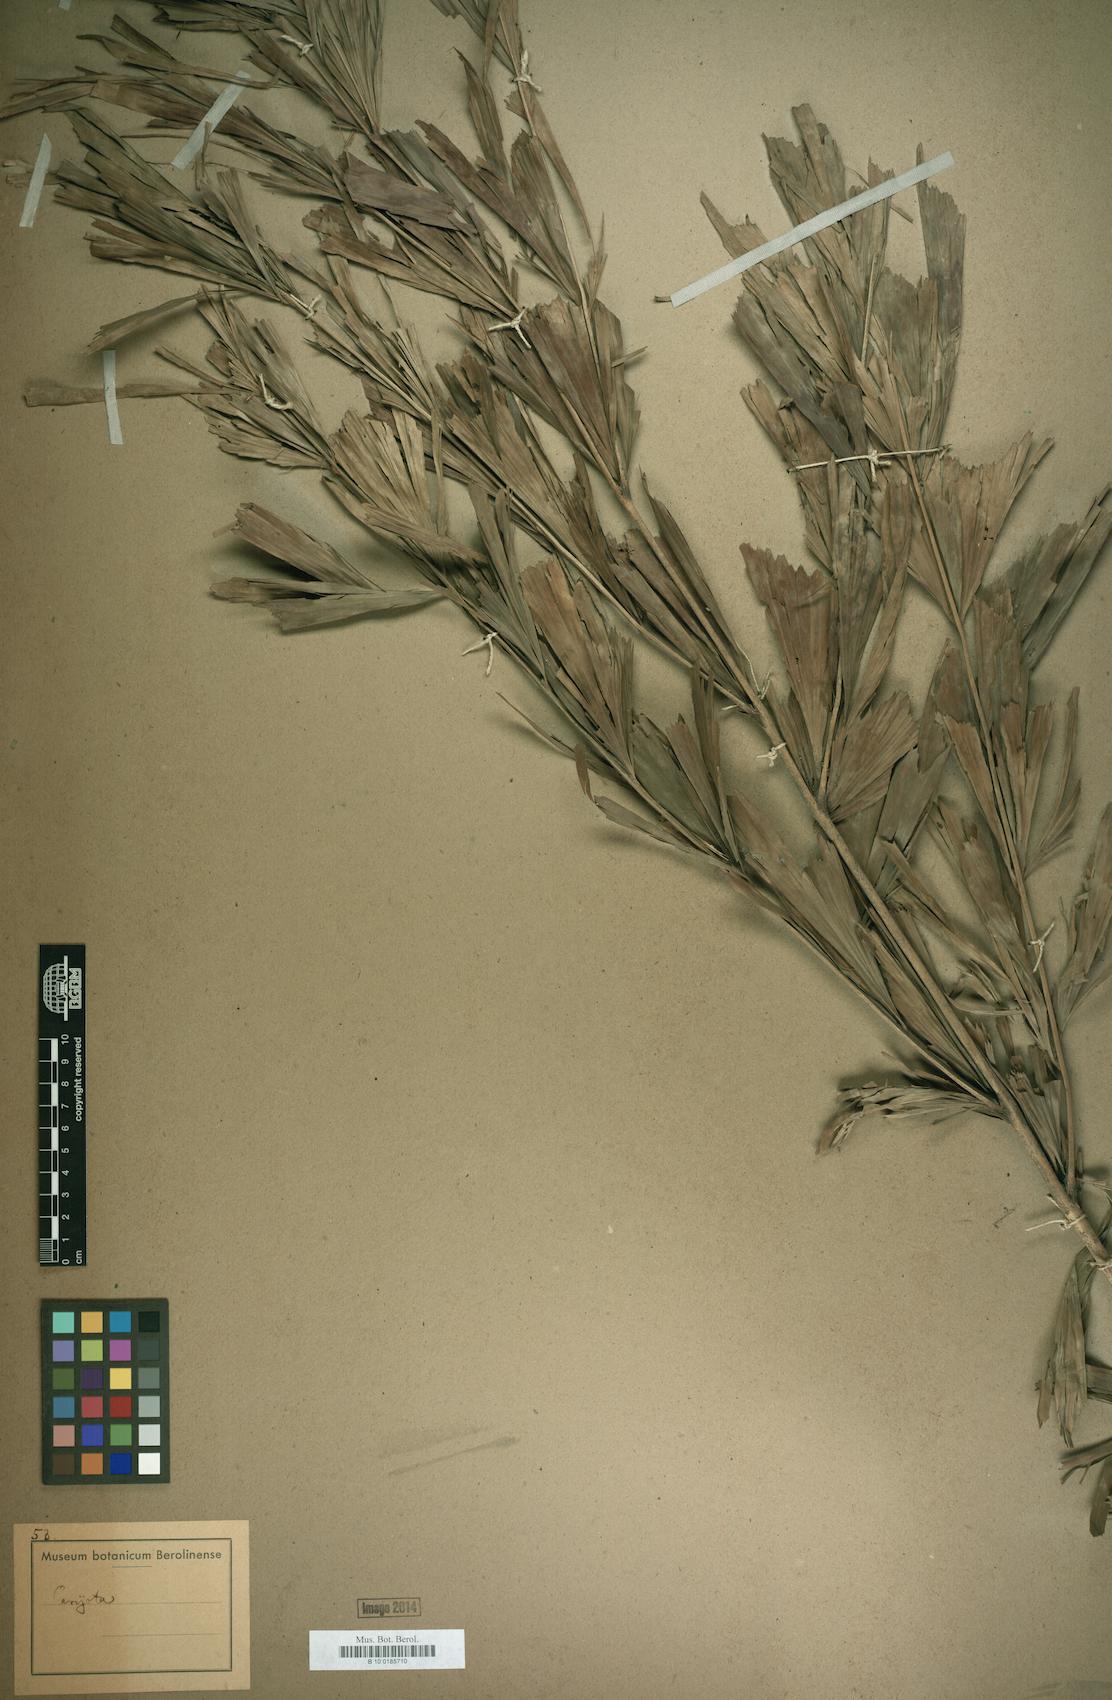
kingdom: Plantae
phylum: Tracheophyta
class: Liliopsida
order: Arecales
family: Arecaceae
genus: Caryota
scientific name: Caryota
